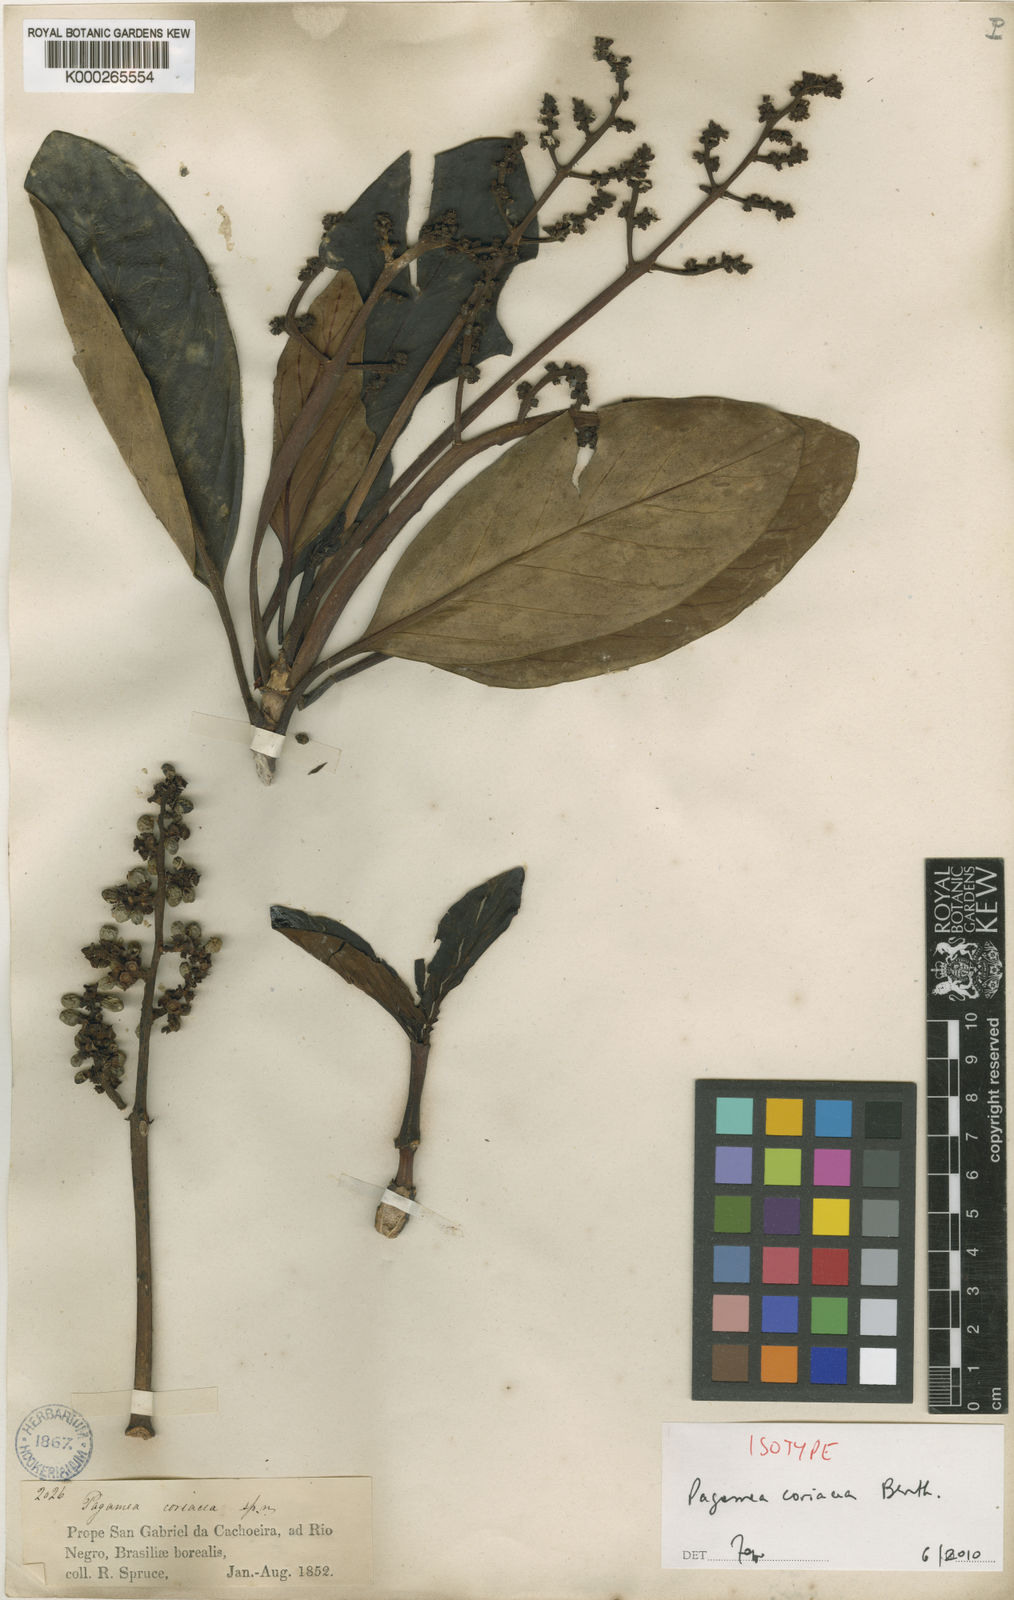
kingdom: Plantae
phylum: Tracheophyta
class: Magnoliopsida
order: Gentianales
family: Rubiaceae
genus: Pagamea
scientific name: Pagamea coriacea
